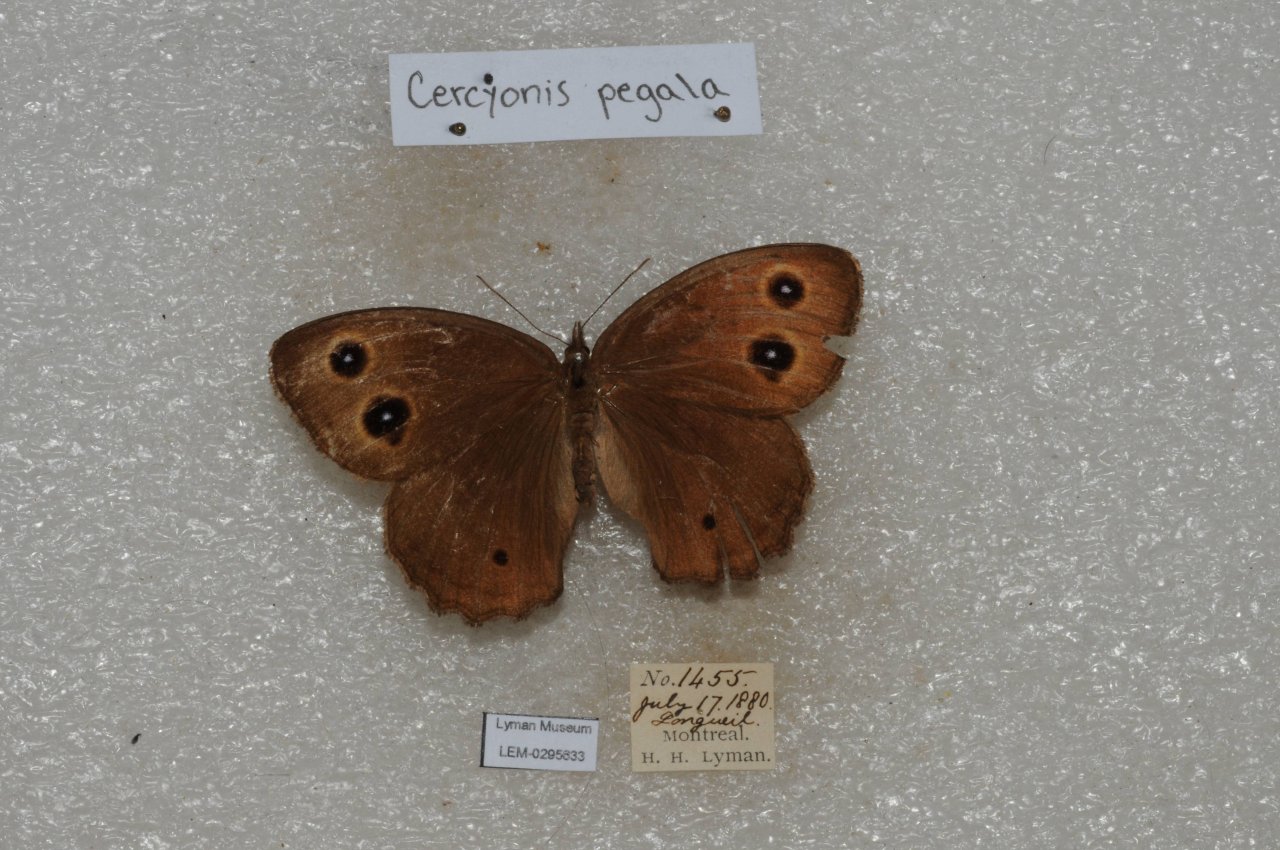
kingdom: Animalia
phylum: Arthropoda
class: Insecta
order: Lepidoptera
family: Nymphalidae
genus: Cercyonis
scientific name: Cercyonis pegala
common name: Common Wood-Nymph
